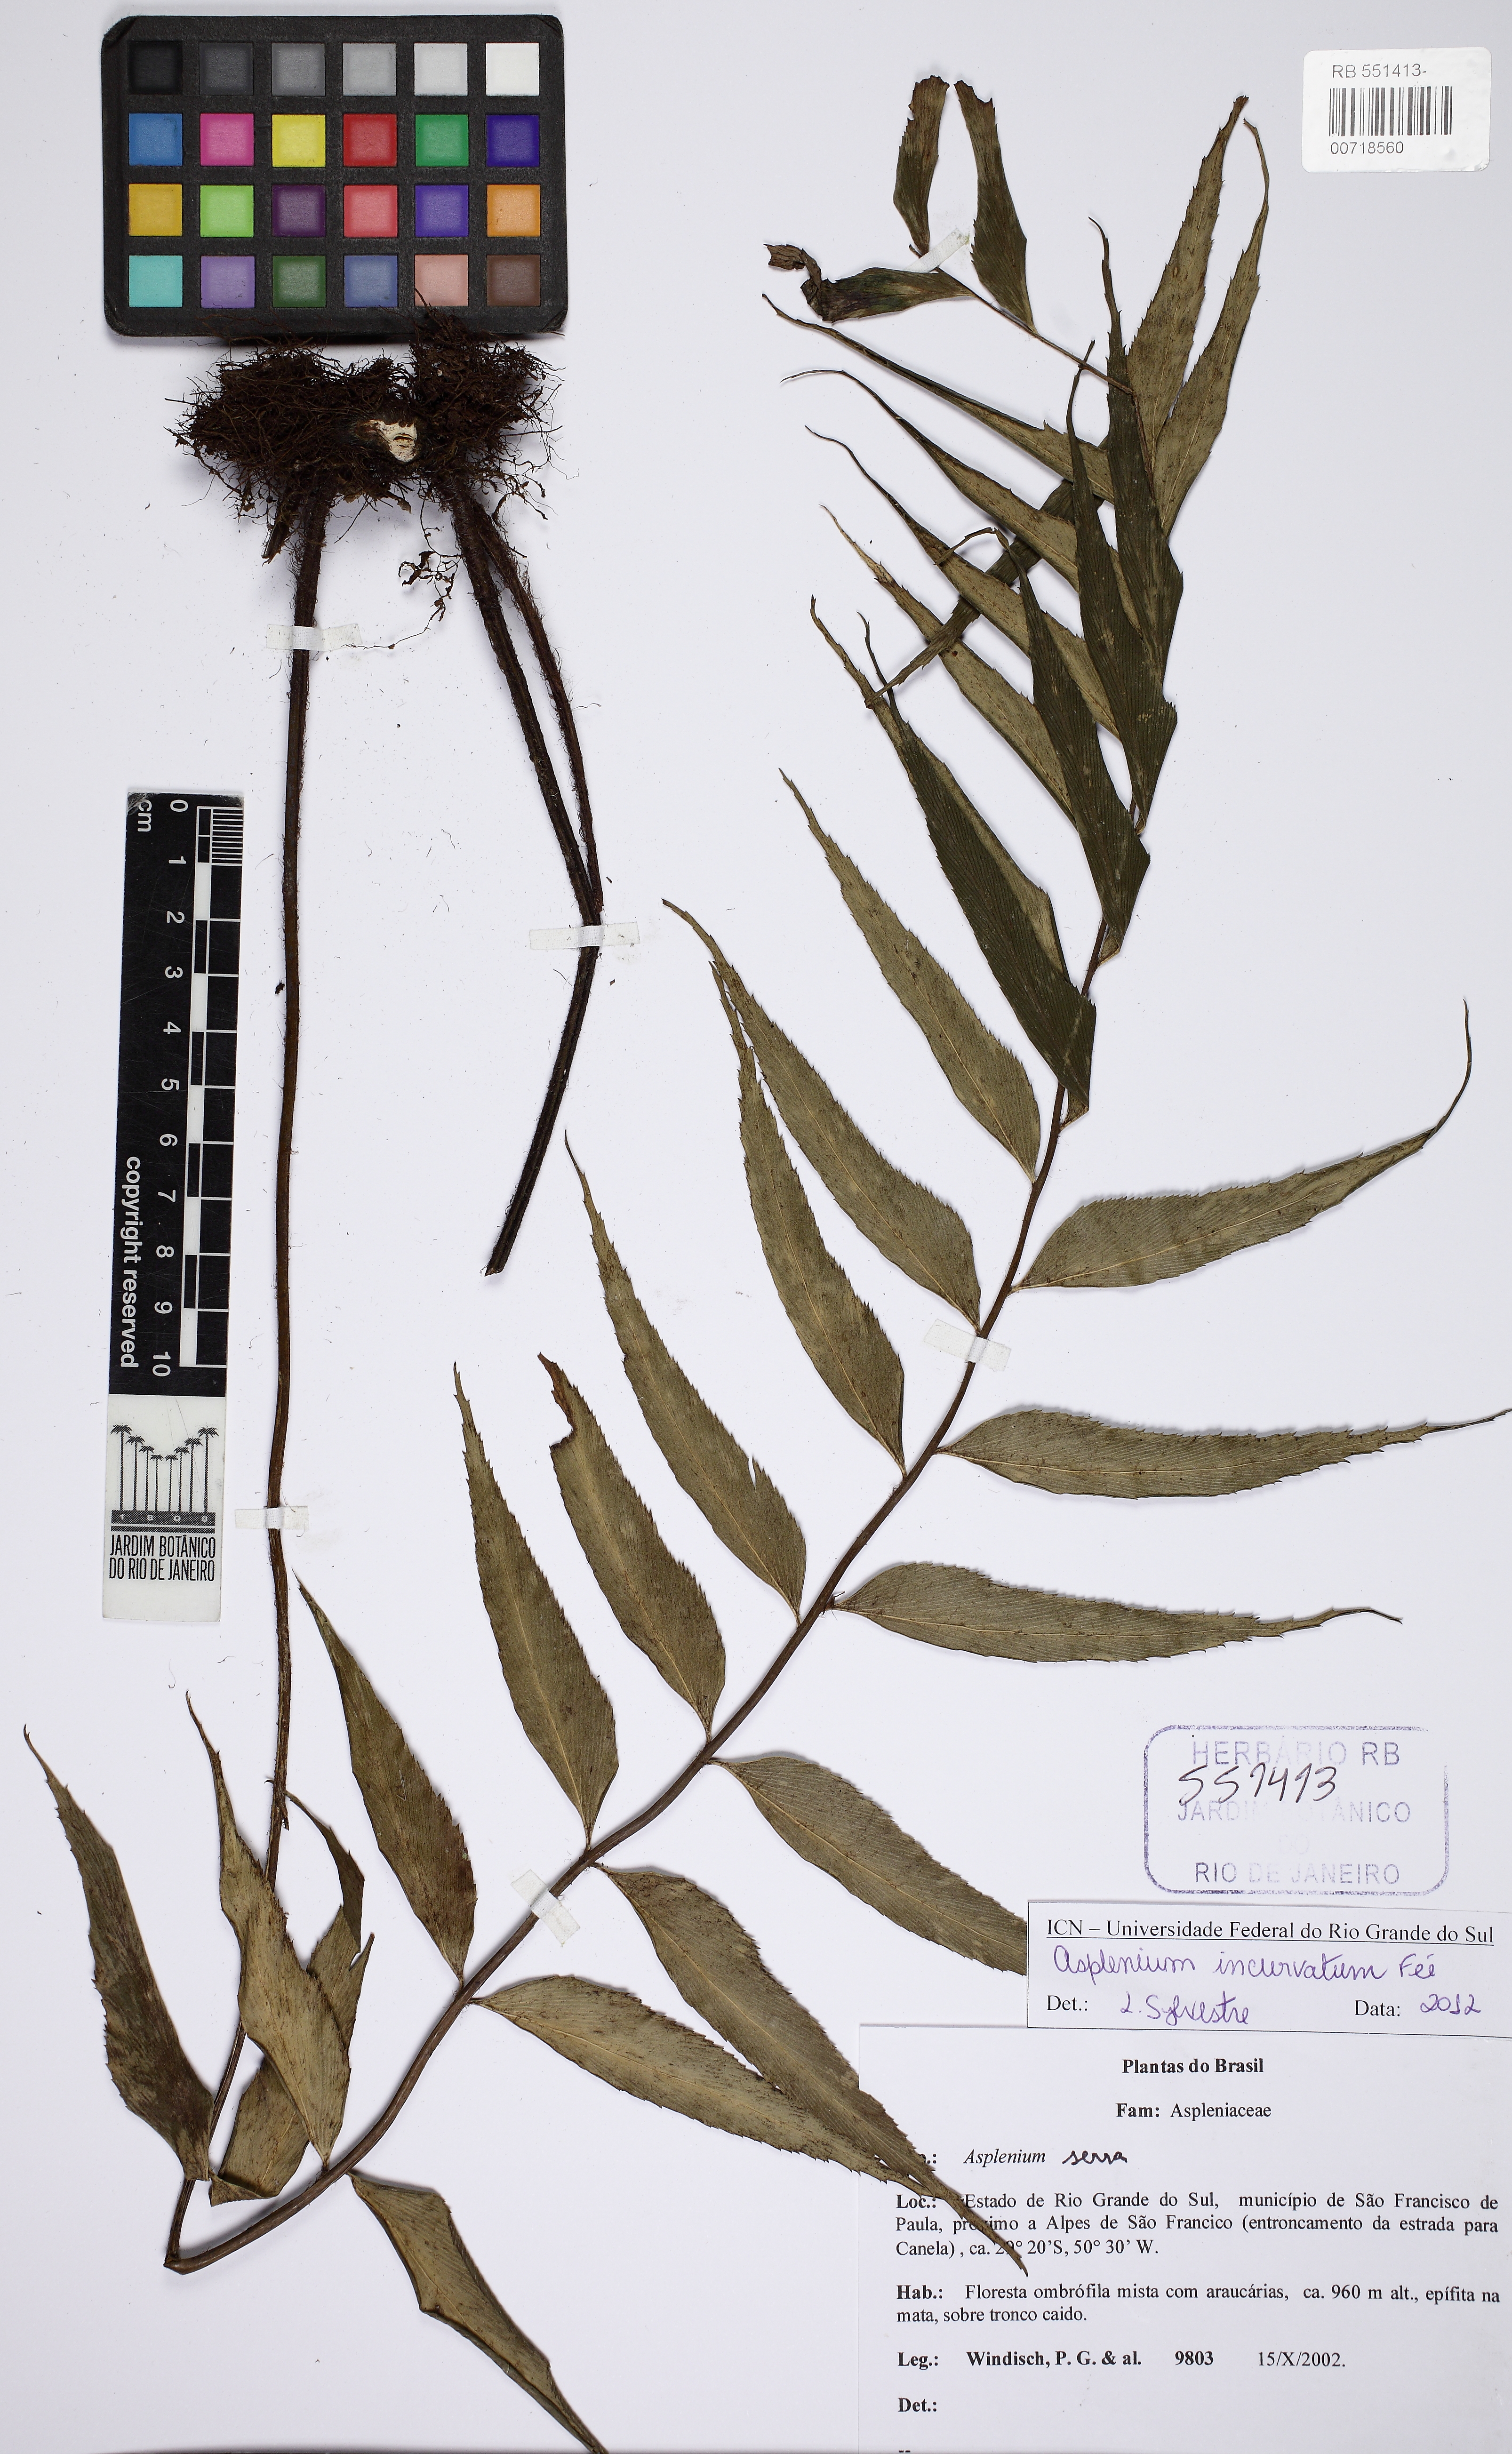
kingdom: Plantae
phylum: Tracheophyta
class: Polypodiopsida
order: Polypodiales
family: Aspleniaceae
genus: Asplenium
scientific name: Asplenium serra
